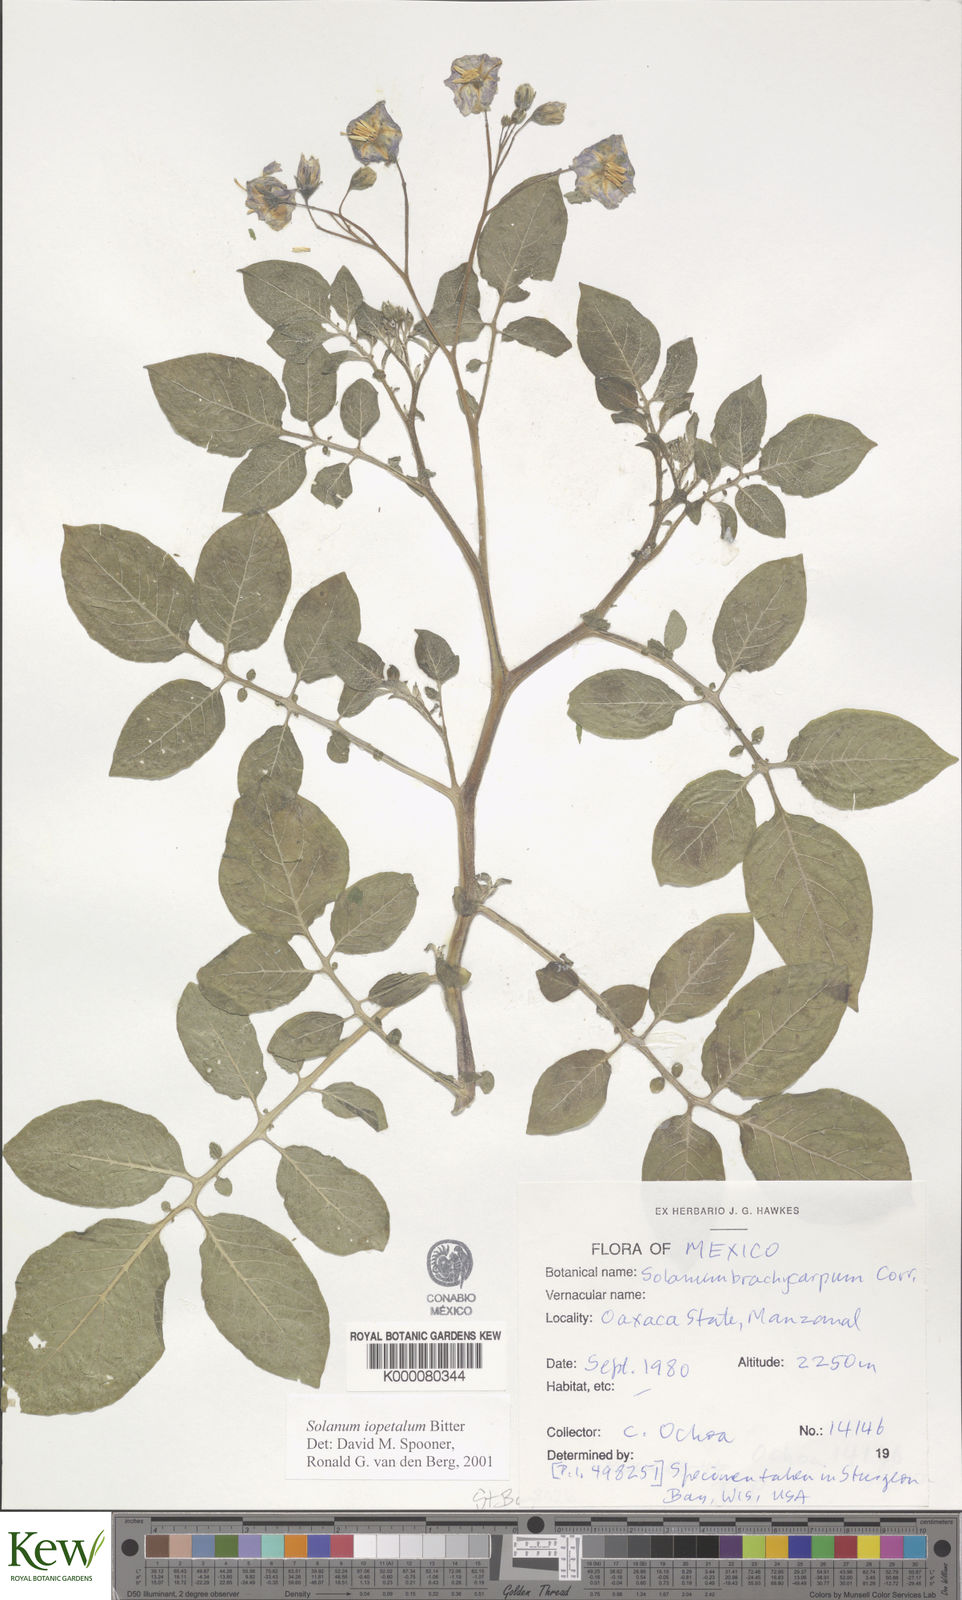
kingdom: Plantae
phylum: Tracheophyta
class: Magnoliopsida
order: Solanales
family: Solanaceae
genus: Solanum
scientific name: Solanum iopetalum
